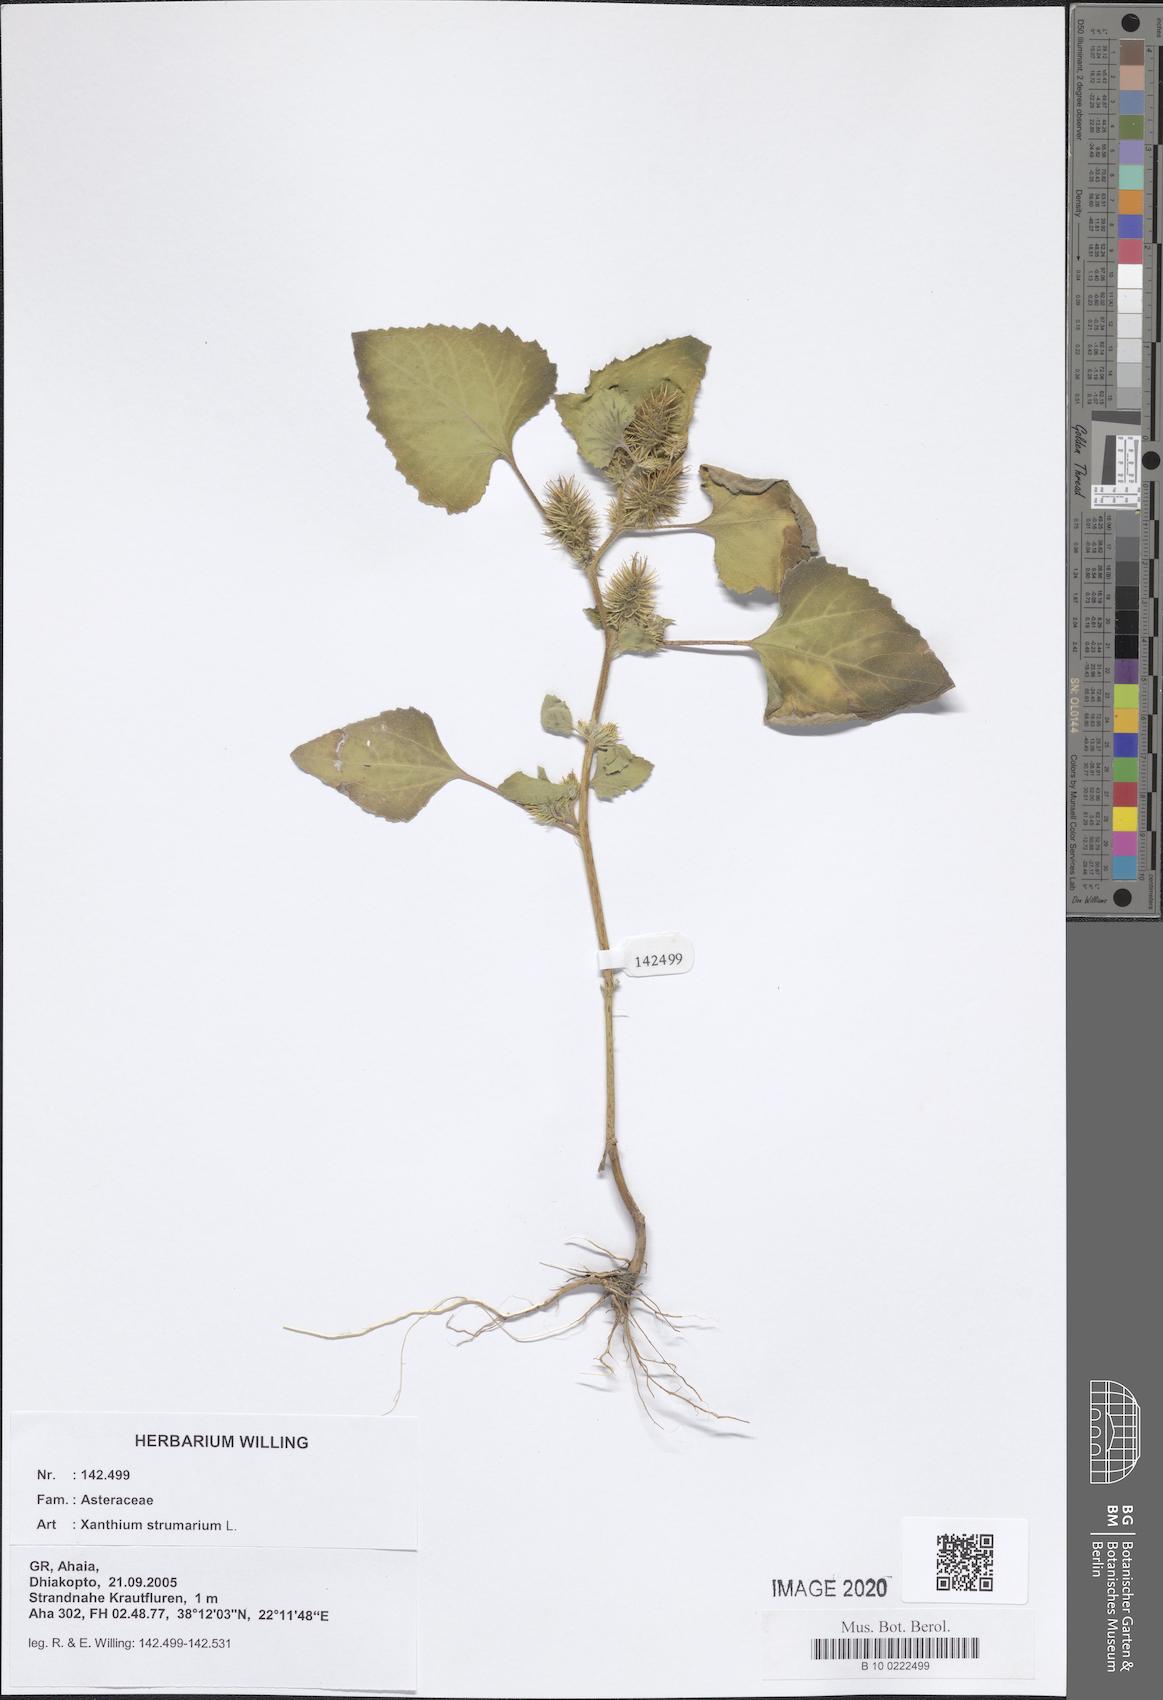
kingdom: Plantae
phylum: Tracheophyta
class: Magnoliopsida
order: Asterales
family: Asteraceae
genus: Xanthium
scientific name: Xanthium strumarium
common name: Rough cocklebur
